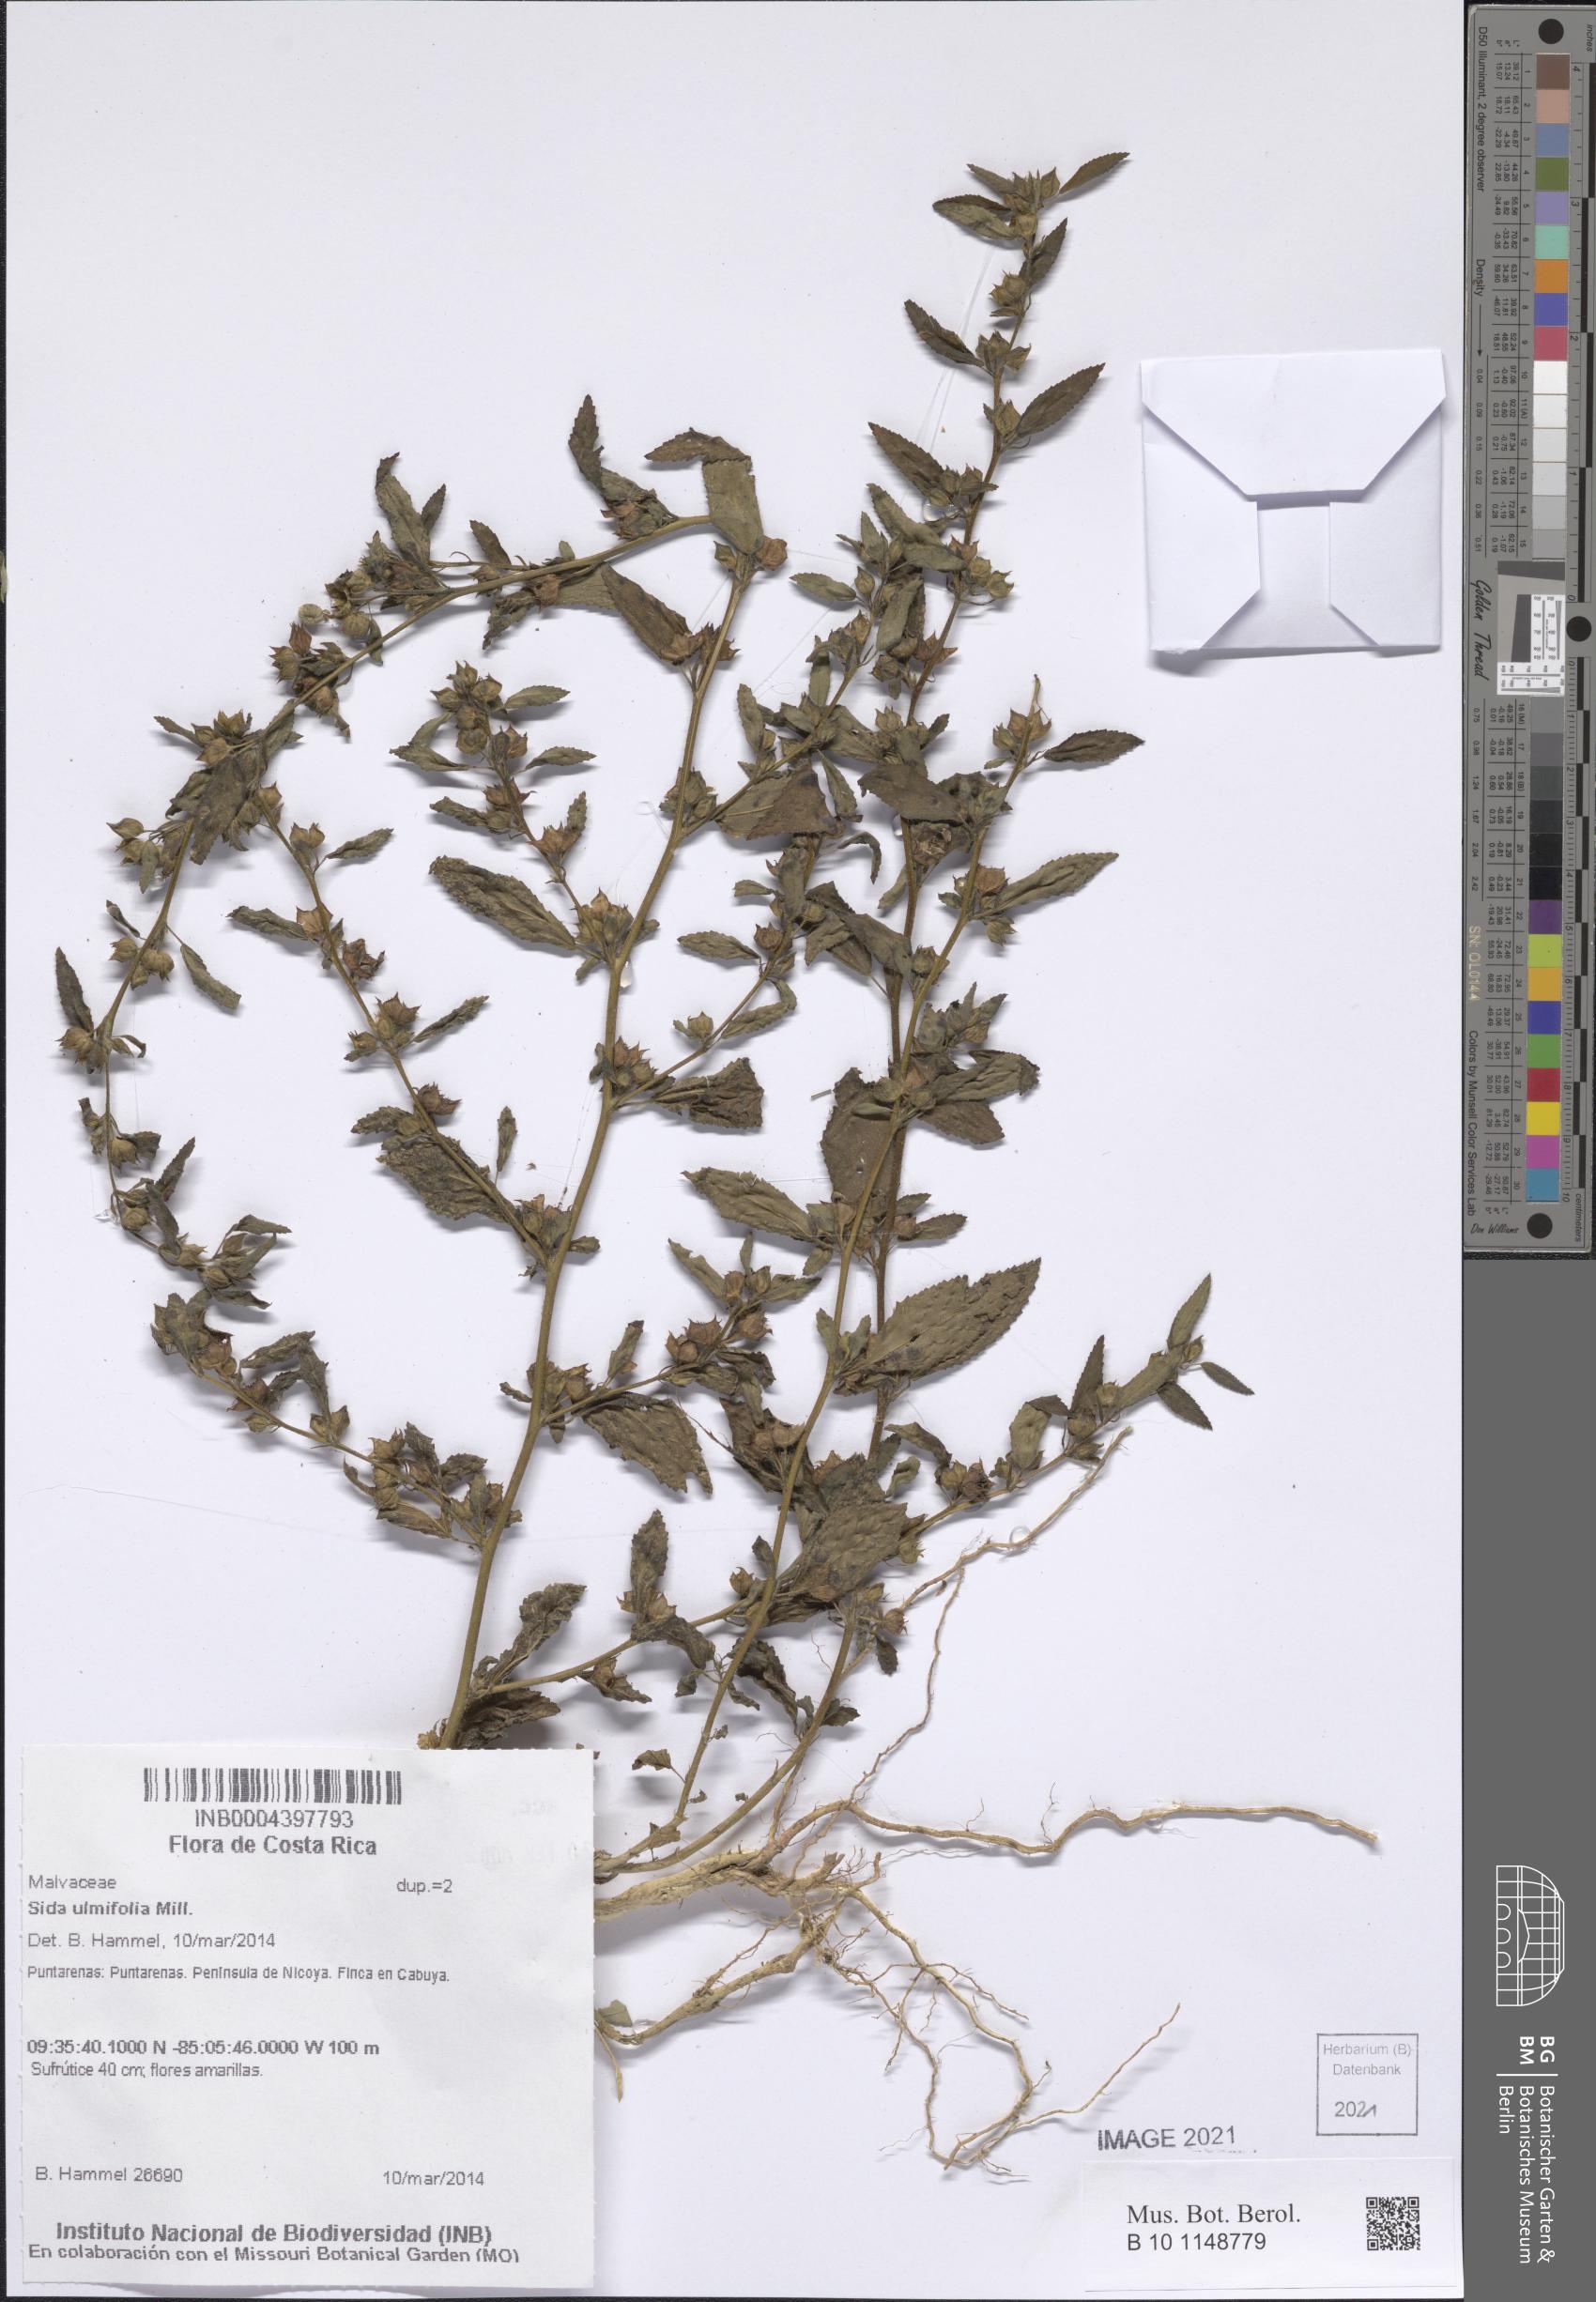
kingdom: Plantae
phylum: Tracheophyta
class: Magnoliopsida
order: Malvales
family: Malvaceae
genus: Sida
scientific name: Sida ulmifolia
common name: Broom weed
